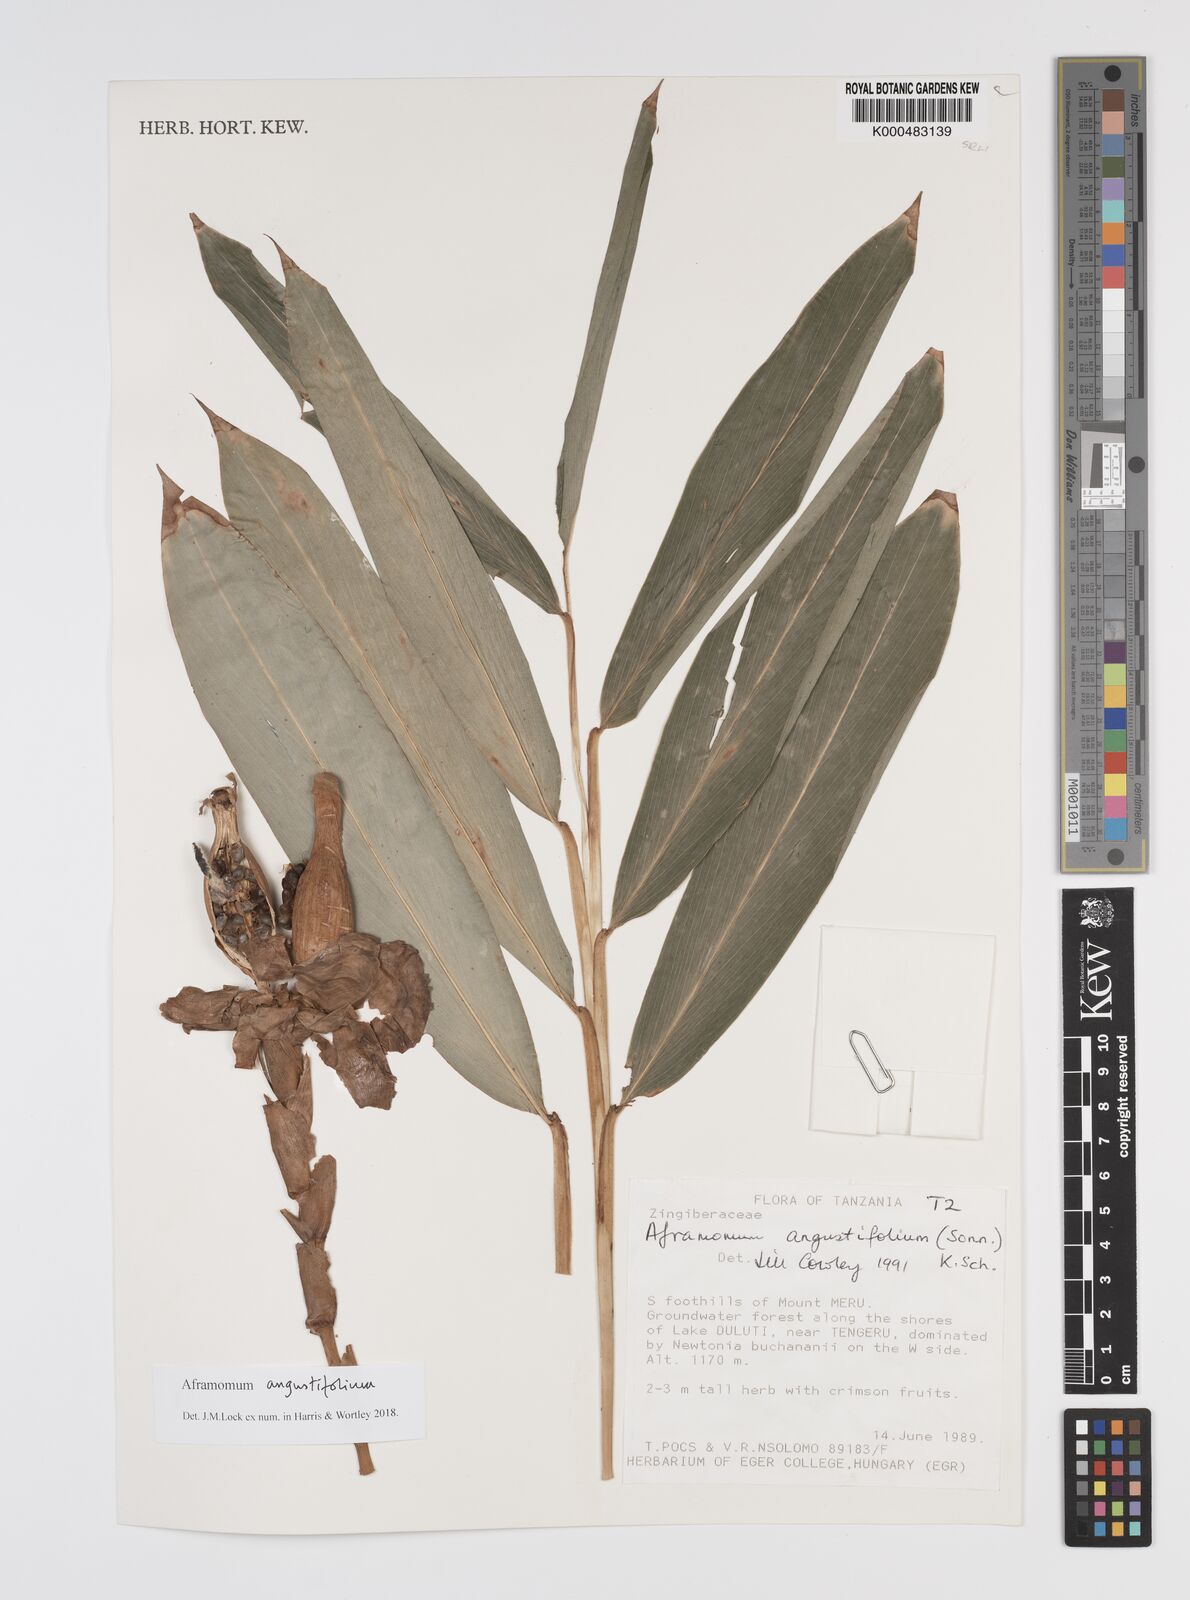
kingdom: Plantae
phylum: Tracheophyta
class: Liliopsida
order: Zingiberales
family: Zingiberaceae
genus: Aframomum
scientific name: Aframomum angustifolium
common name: Guinea grains
